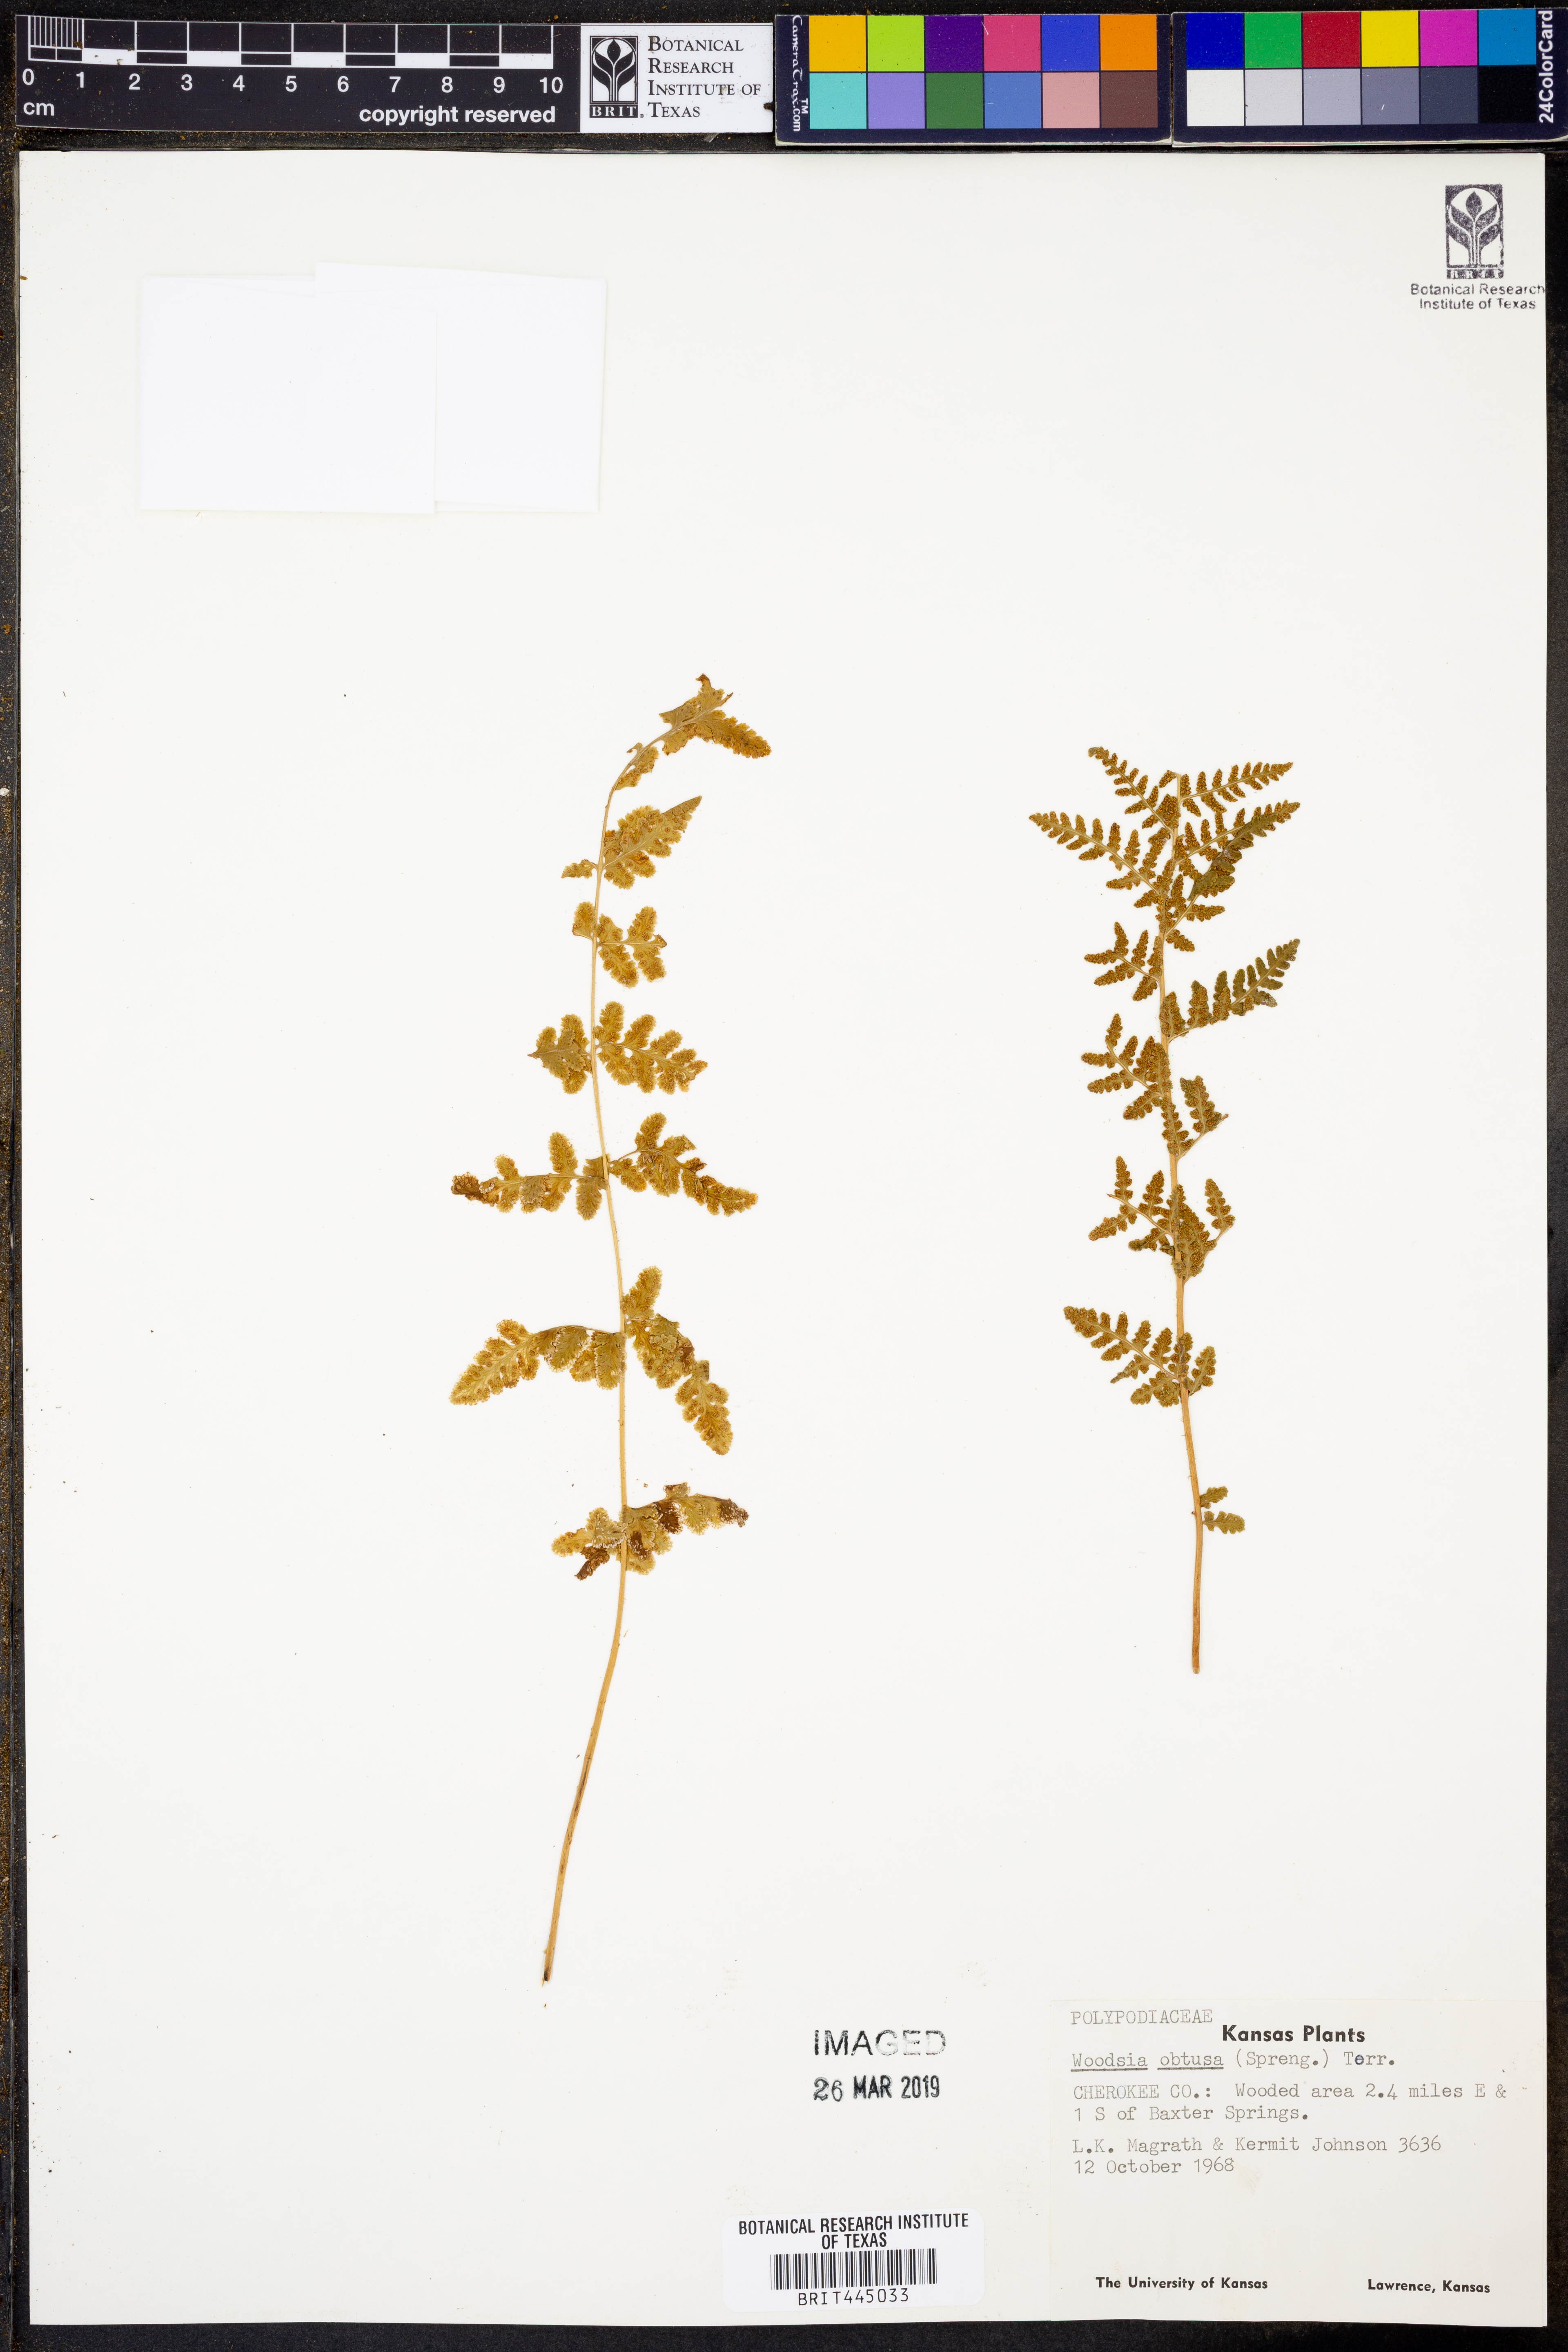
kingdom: Plantae
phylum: Tracheophyta
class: Polypodiopsida
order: Polypodiales
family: Woodsiaceae
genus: Physematium
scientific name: Physematium obtusum
